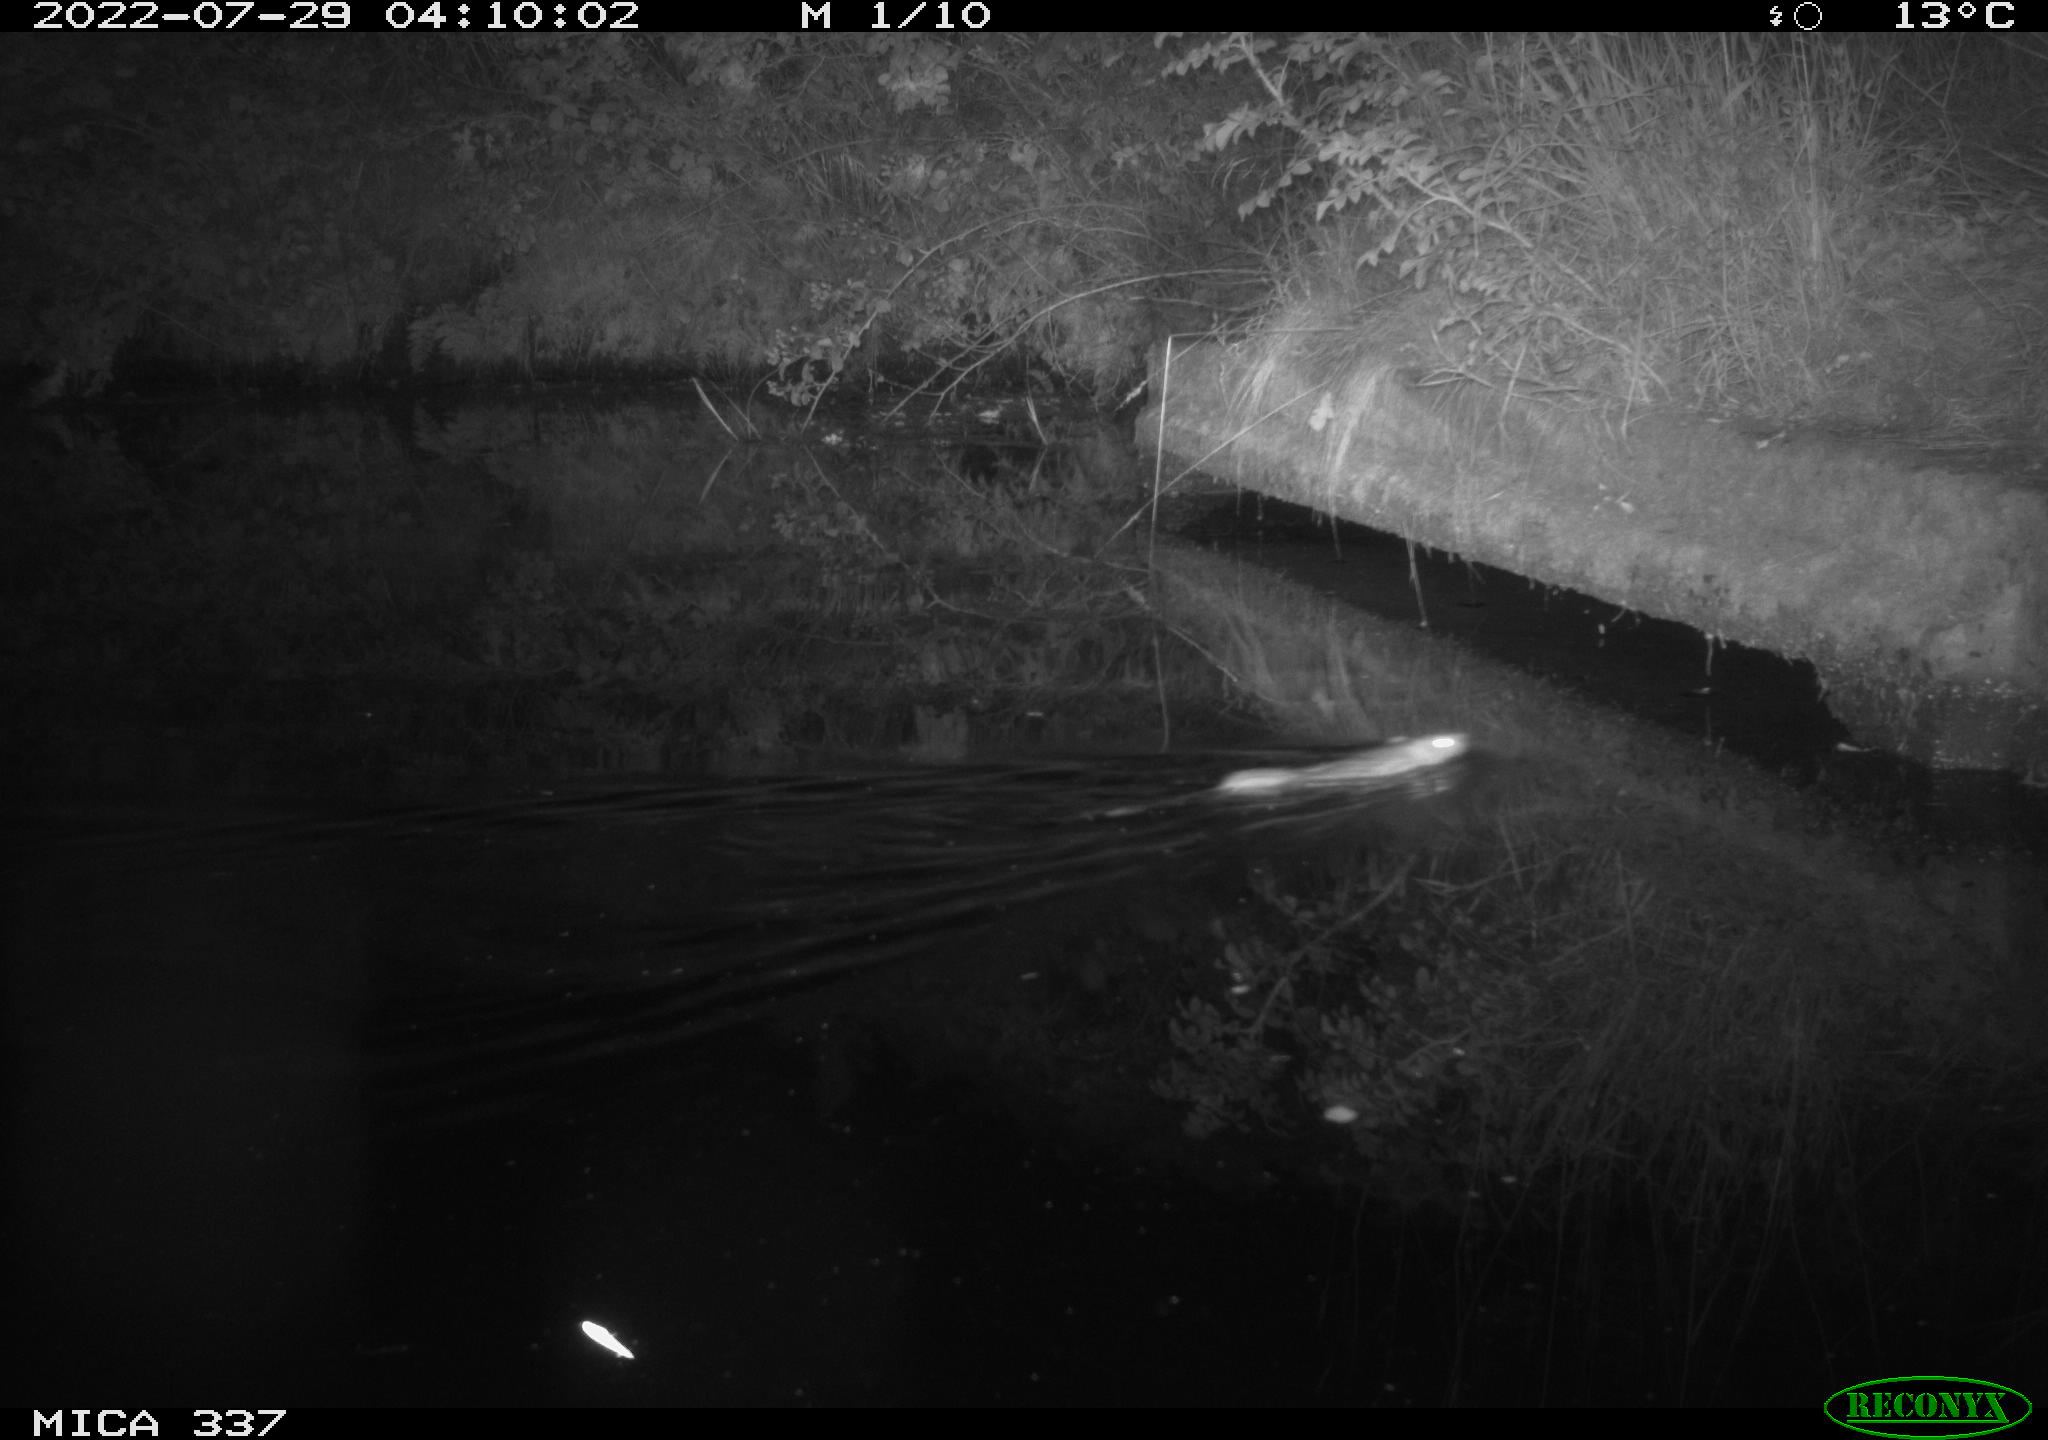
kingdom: Animalia
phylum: Chordata
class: Mammalia
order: Rodentia
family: Muridae
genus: Rattus
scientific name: Rattus norvegicus
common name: Brown rat
